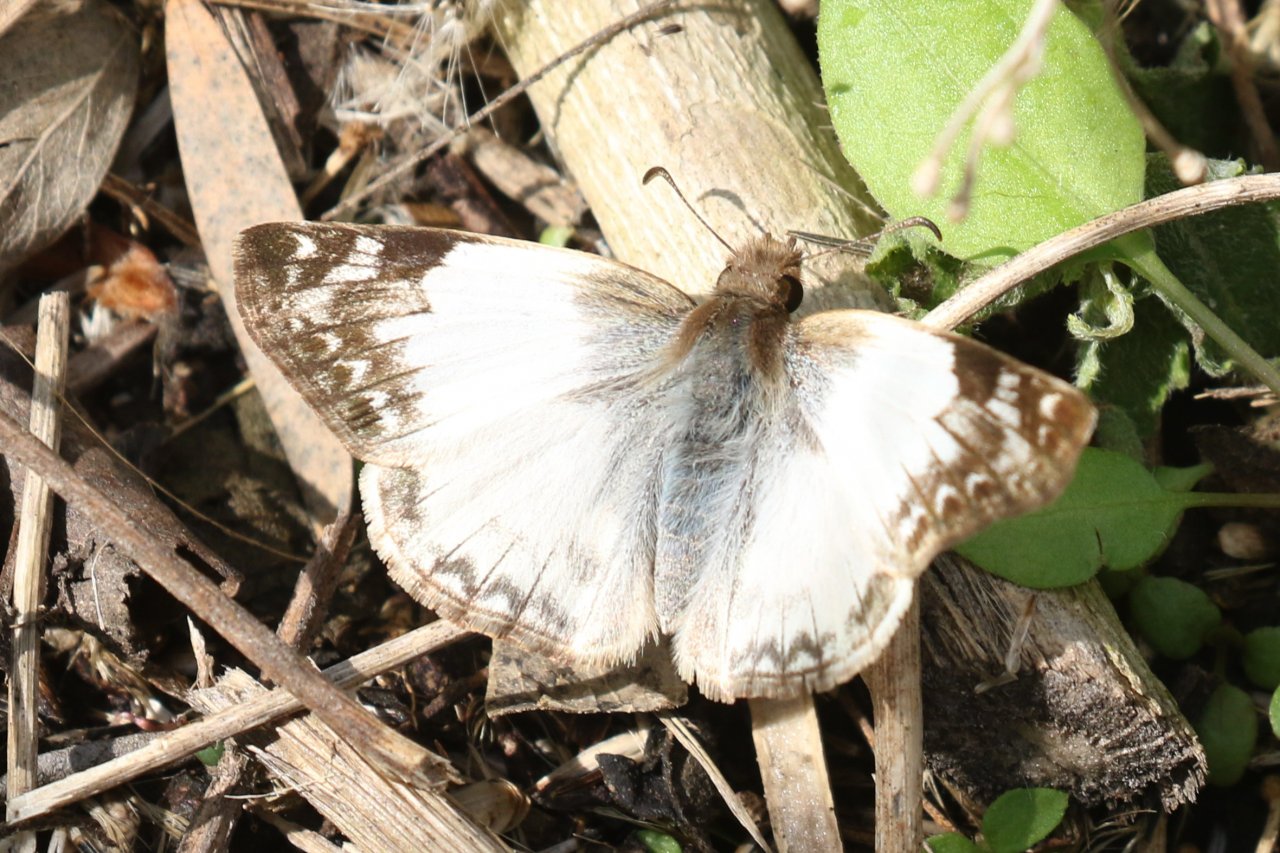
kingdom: Animalia
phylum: Arthropoda
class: Insecta
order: Lepidoptera
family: Hesperiidae
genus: Heliopetes
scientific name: Heliopetes laviana
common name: Laviana White-Skipper
